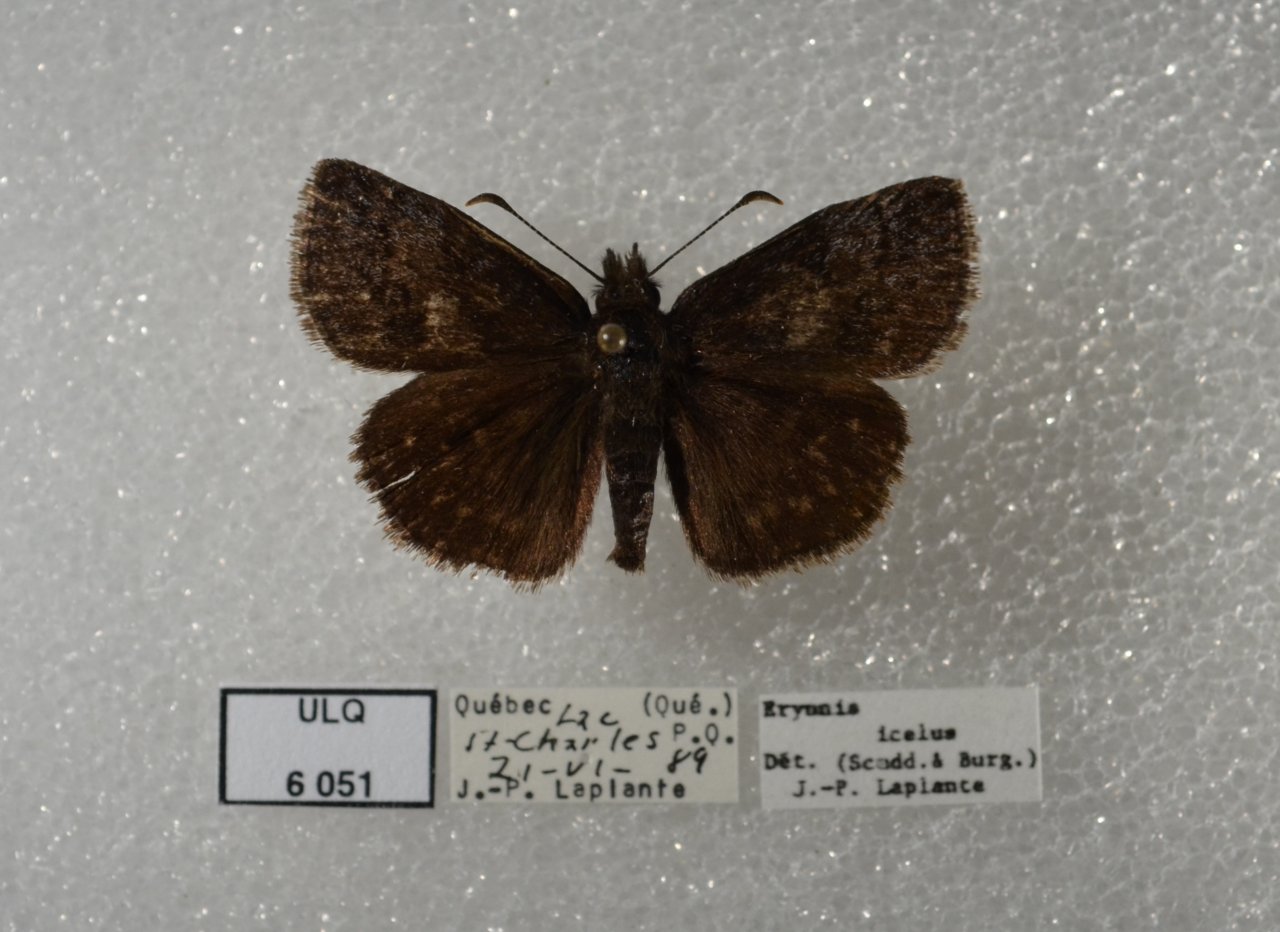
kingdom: Animalia
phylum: Arthropoda
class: Insecta
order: Lepidoptera
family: Hesperiidae
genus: Erynnis
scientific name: Erynnis icelus
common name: Dreamy Duskywing
